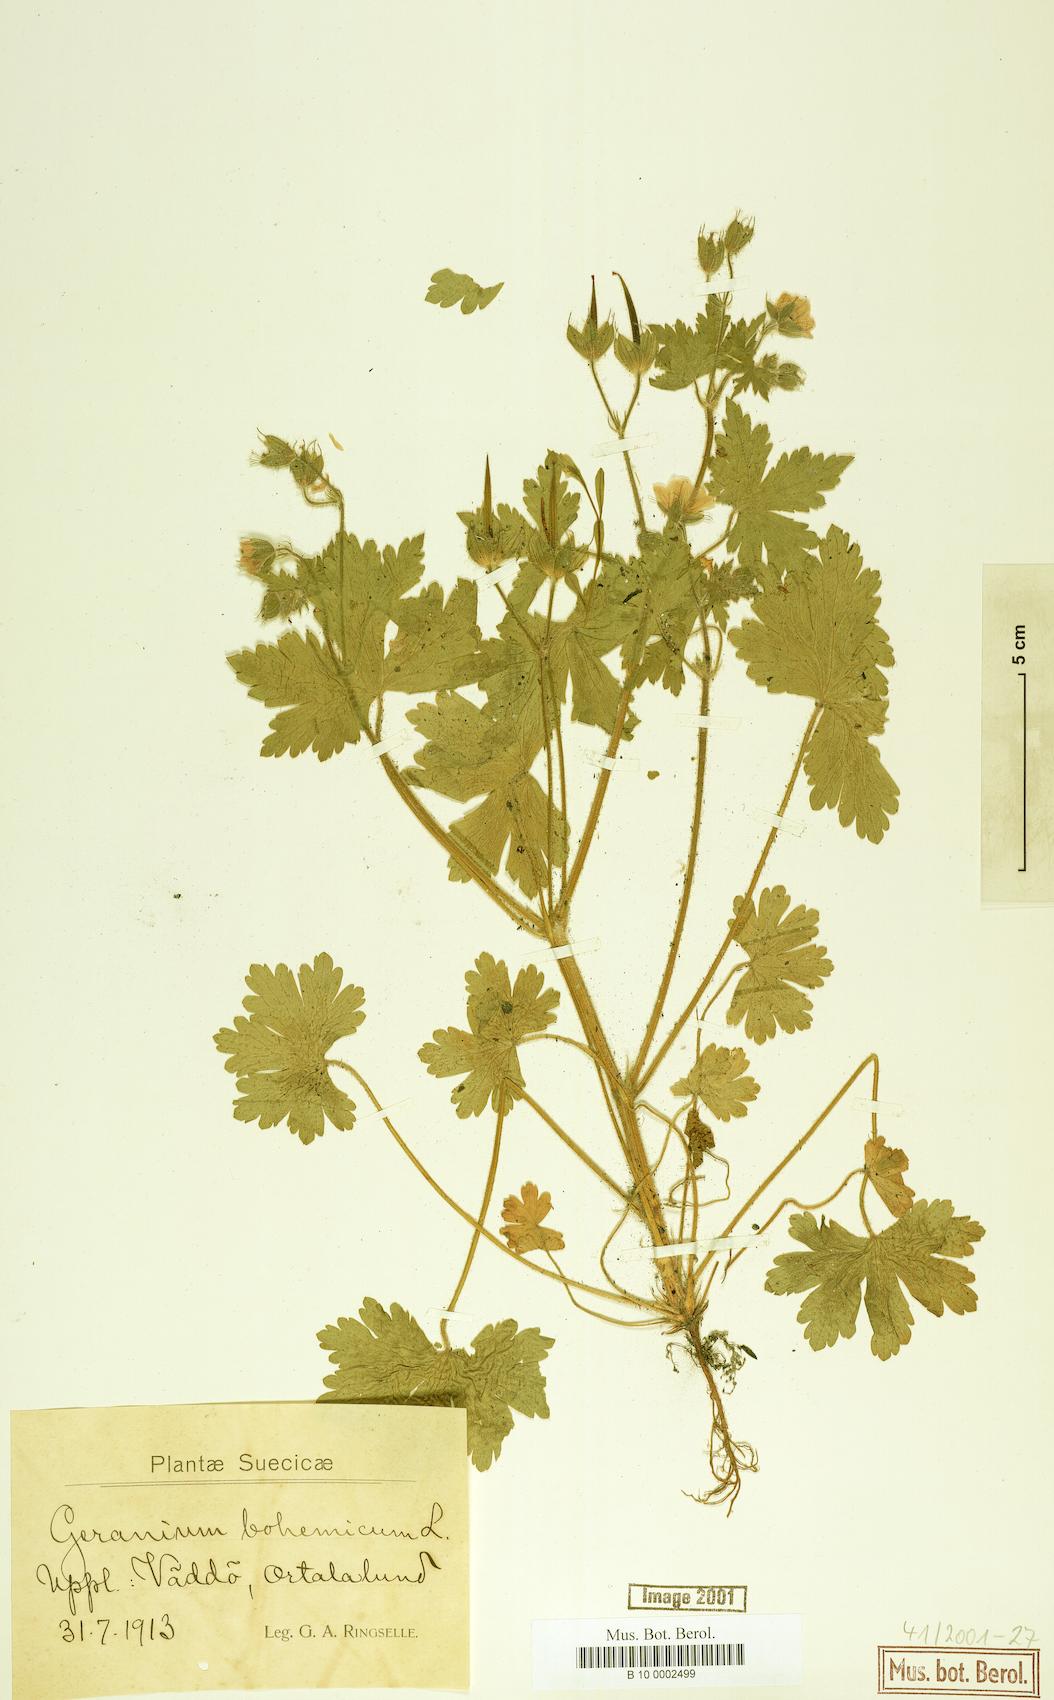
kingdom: Plantae
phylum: Tracheophyta
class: Magnoliopsida
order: Geraniales
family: Geraniaceae
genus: Geranium
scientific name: Geranium bohemicum
